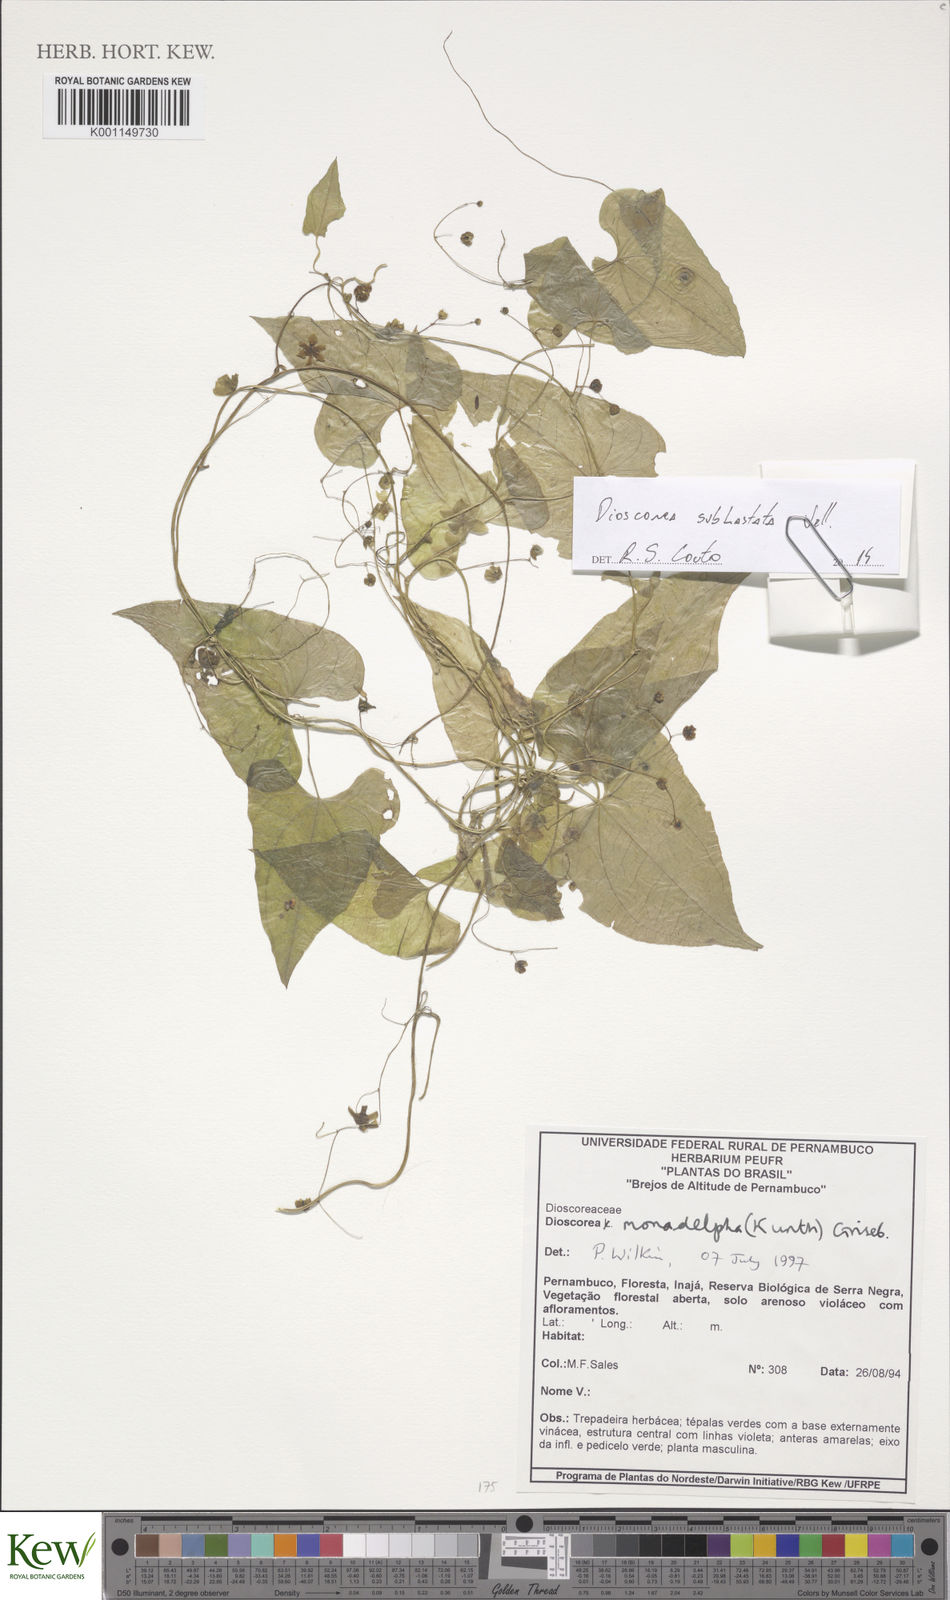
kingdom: Plantae
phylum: Tracheophyta
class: Liliopsida
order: Dioscoreales
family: Dioscoreaceae
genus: Dioscorea
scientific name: Dioscorea subhastata
